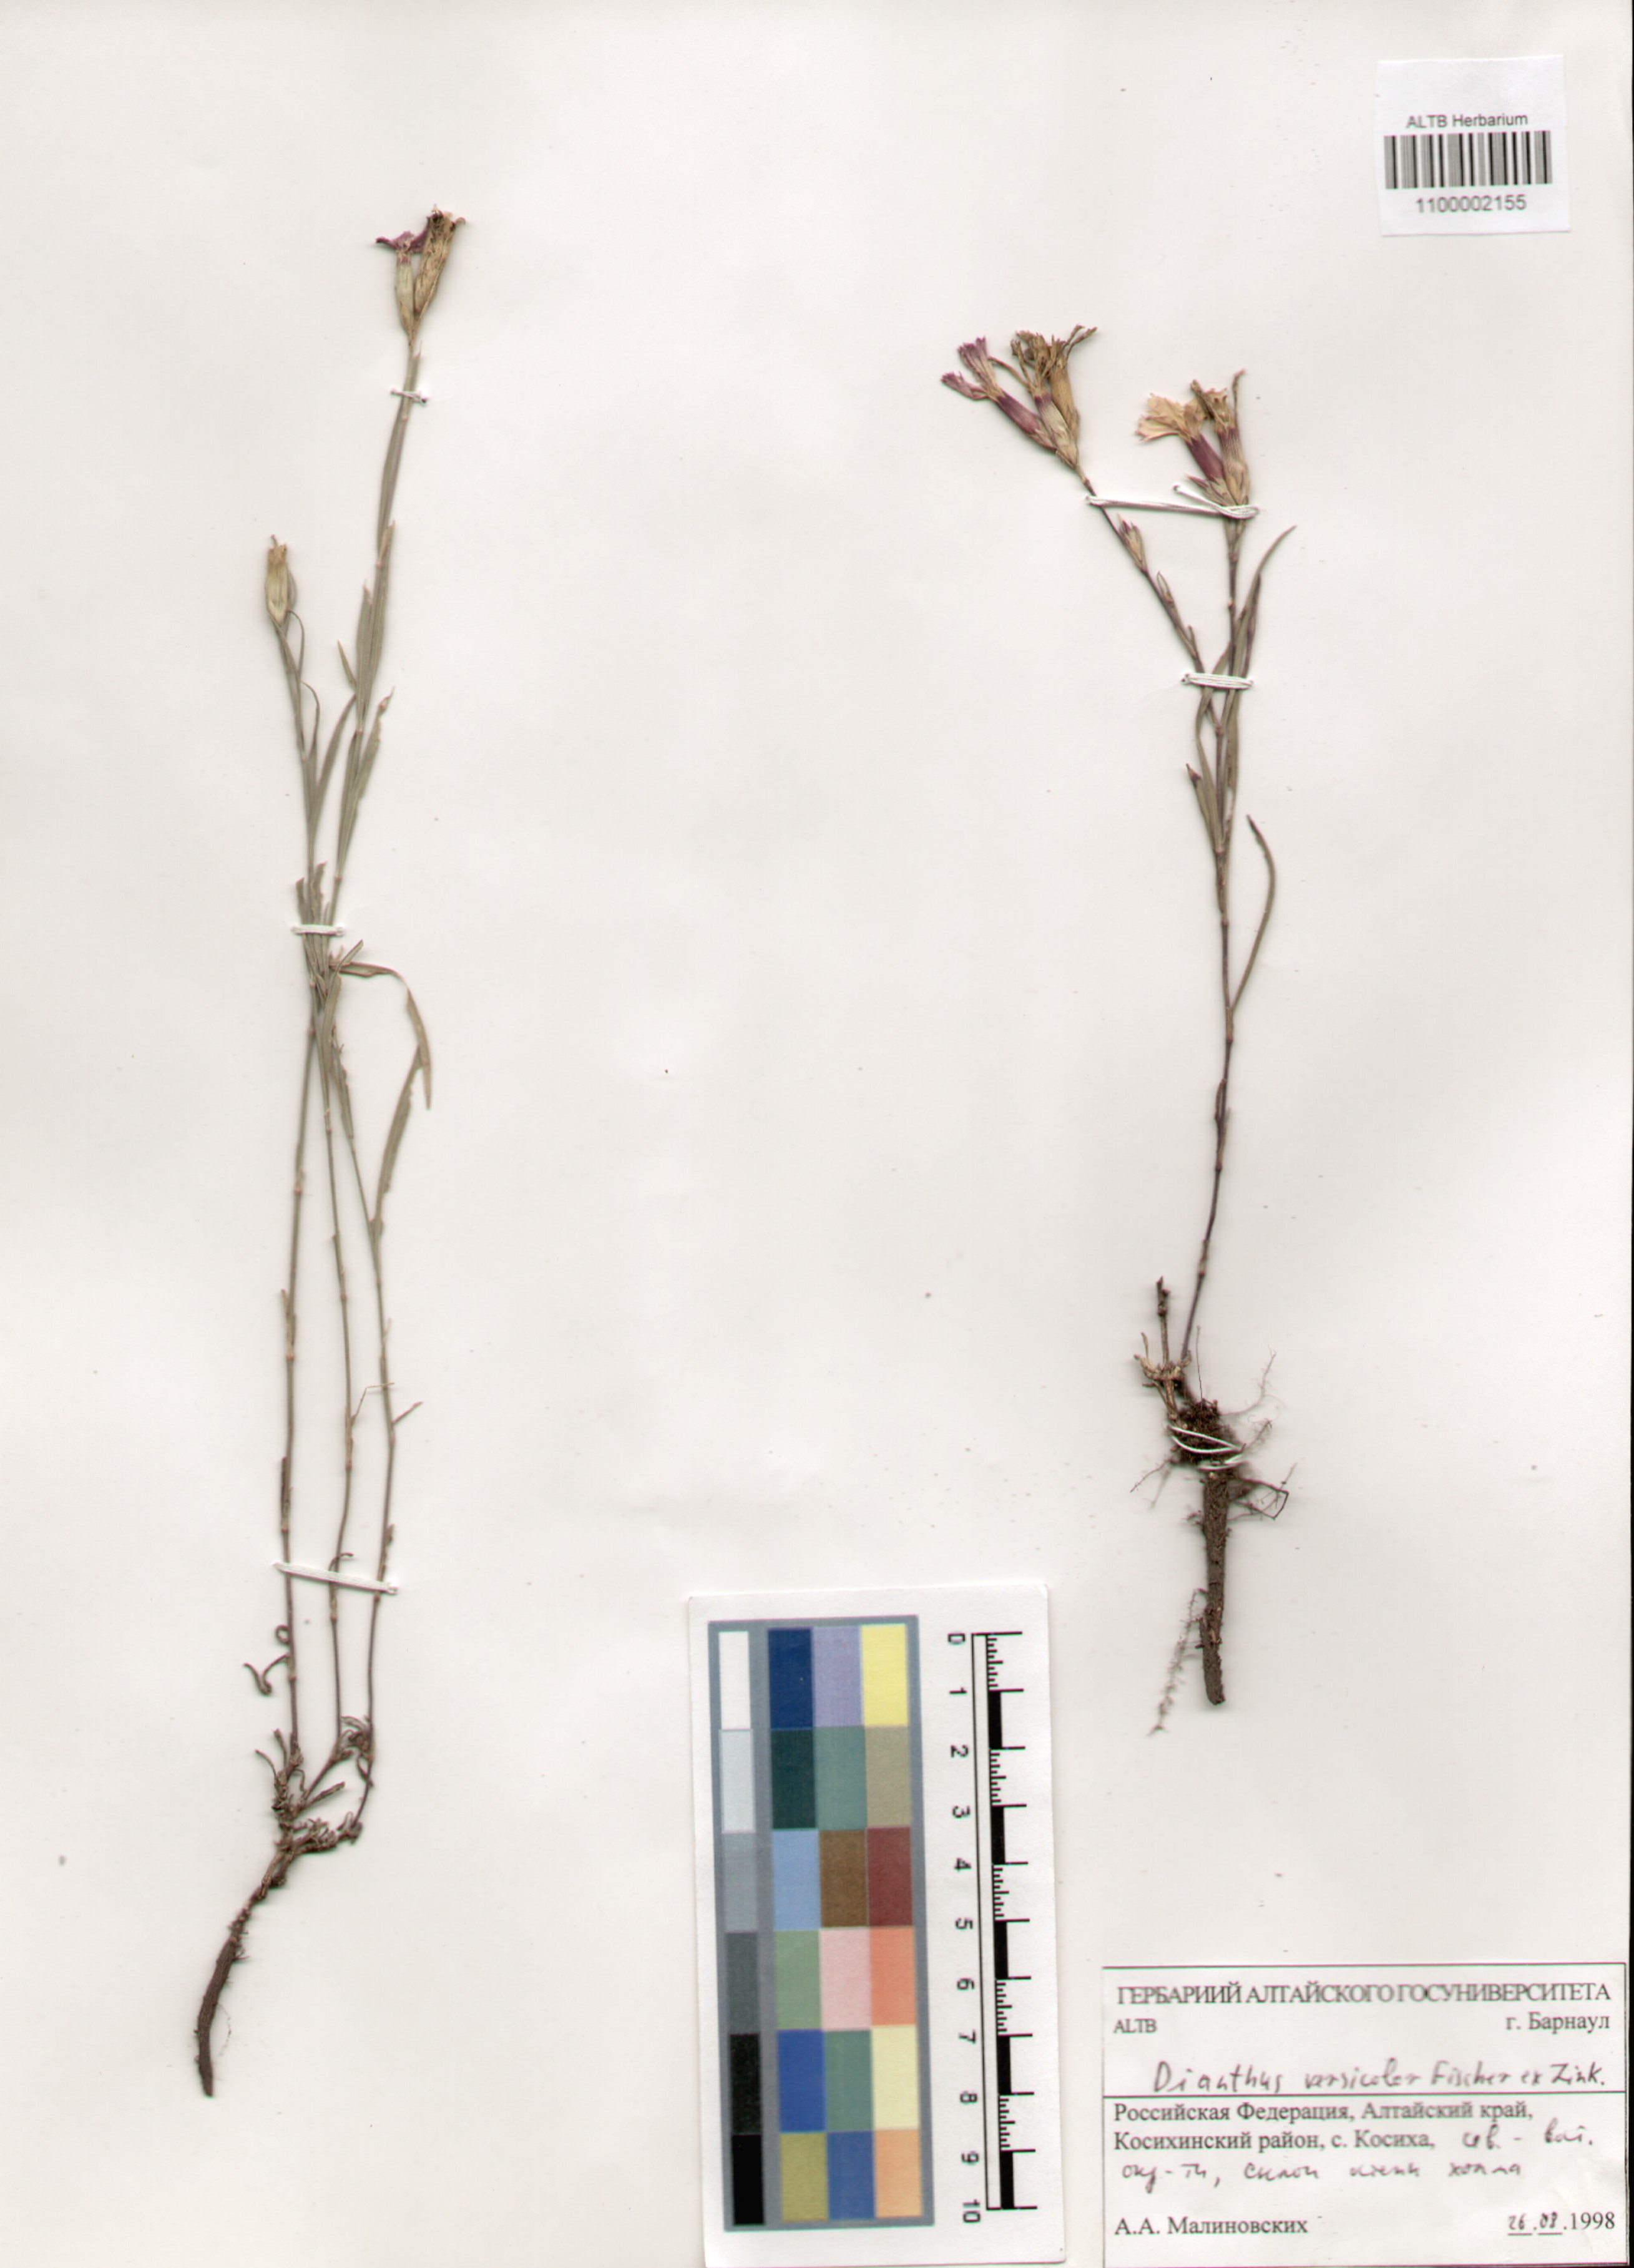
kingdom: Plantae
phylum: Tracheophyta
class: Magnoliopsida
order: Caryophyllales
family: Caryophyllaceae
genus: Dianthus
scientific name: Dianthus chinensis
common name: Rainbow pink
